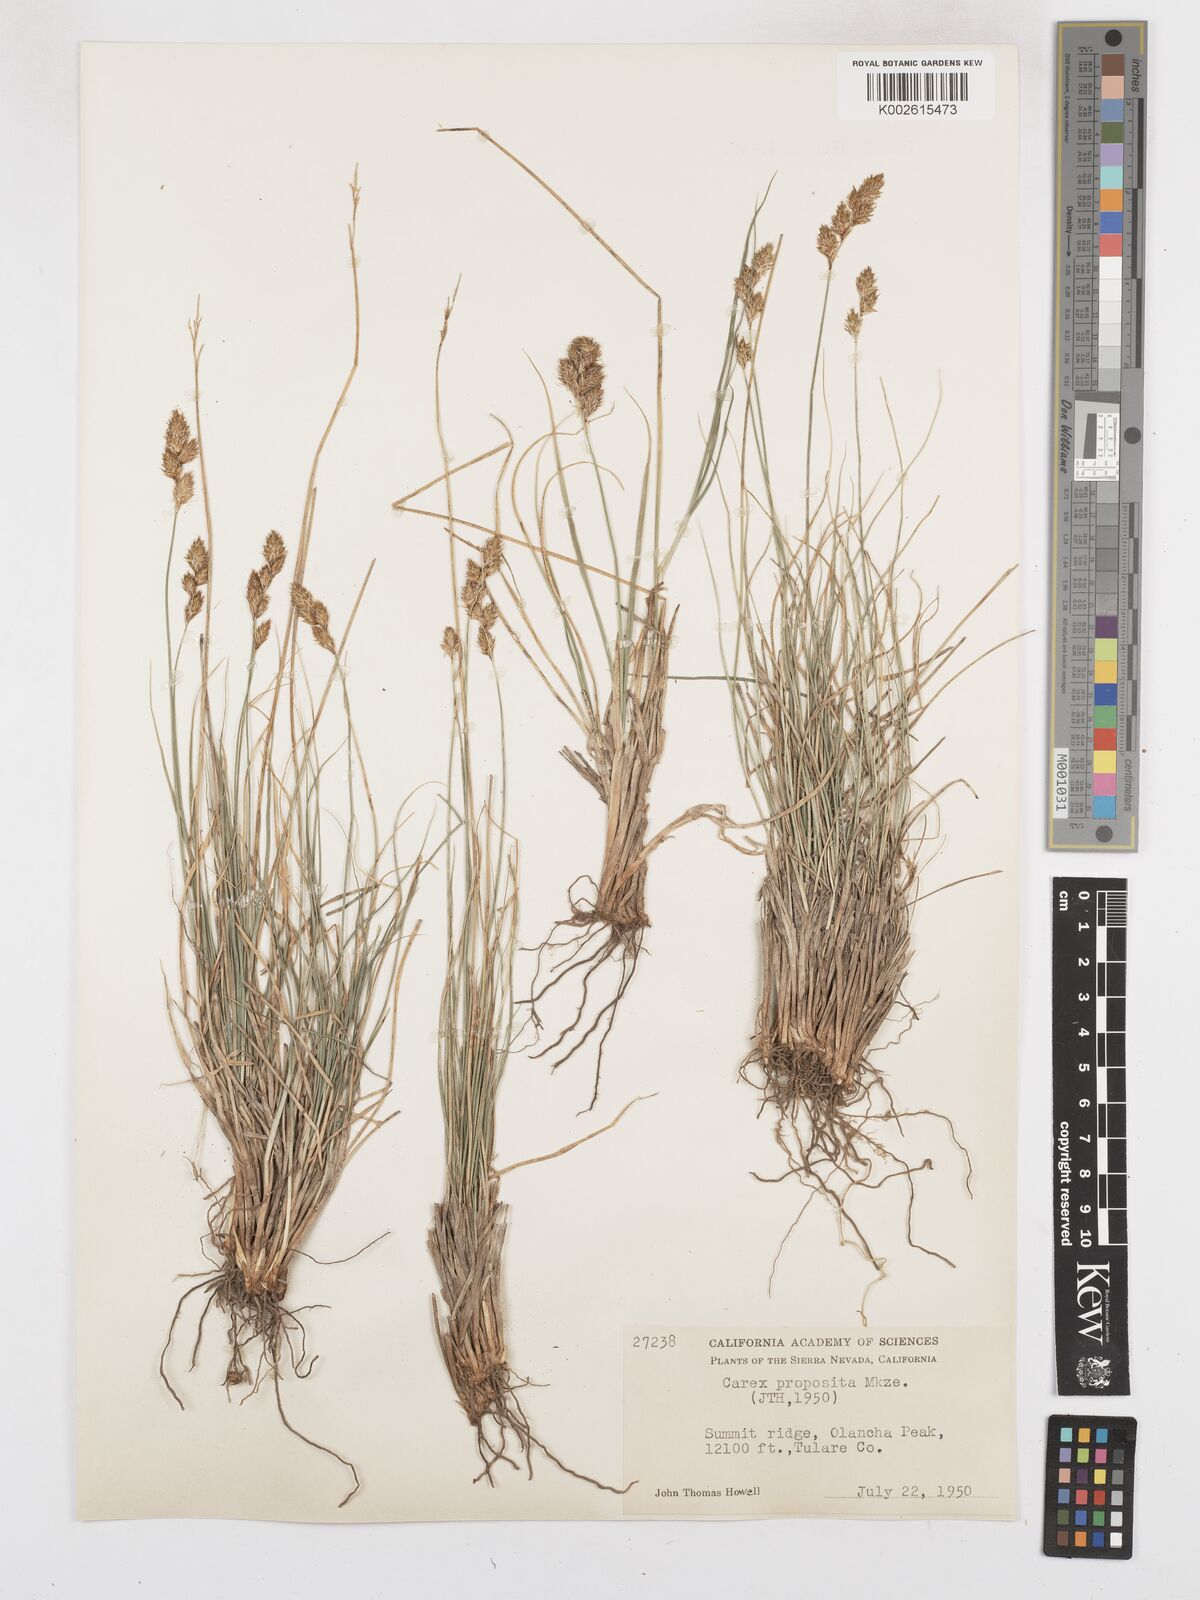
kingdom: Plantae
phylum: Tracheophyta
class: Liliopsida
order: Poales
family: Cyperaceae
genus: Carex
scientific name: Carex proposita
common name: Great smoky mountain sedge
